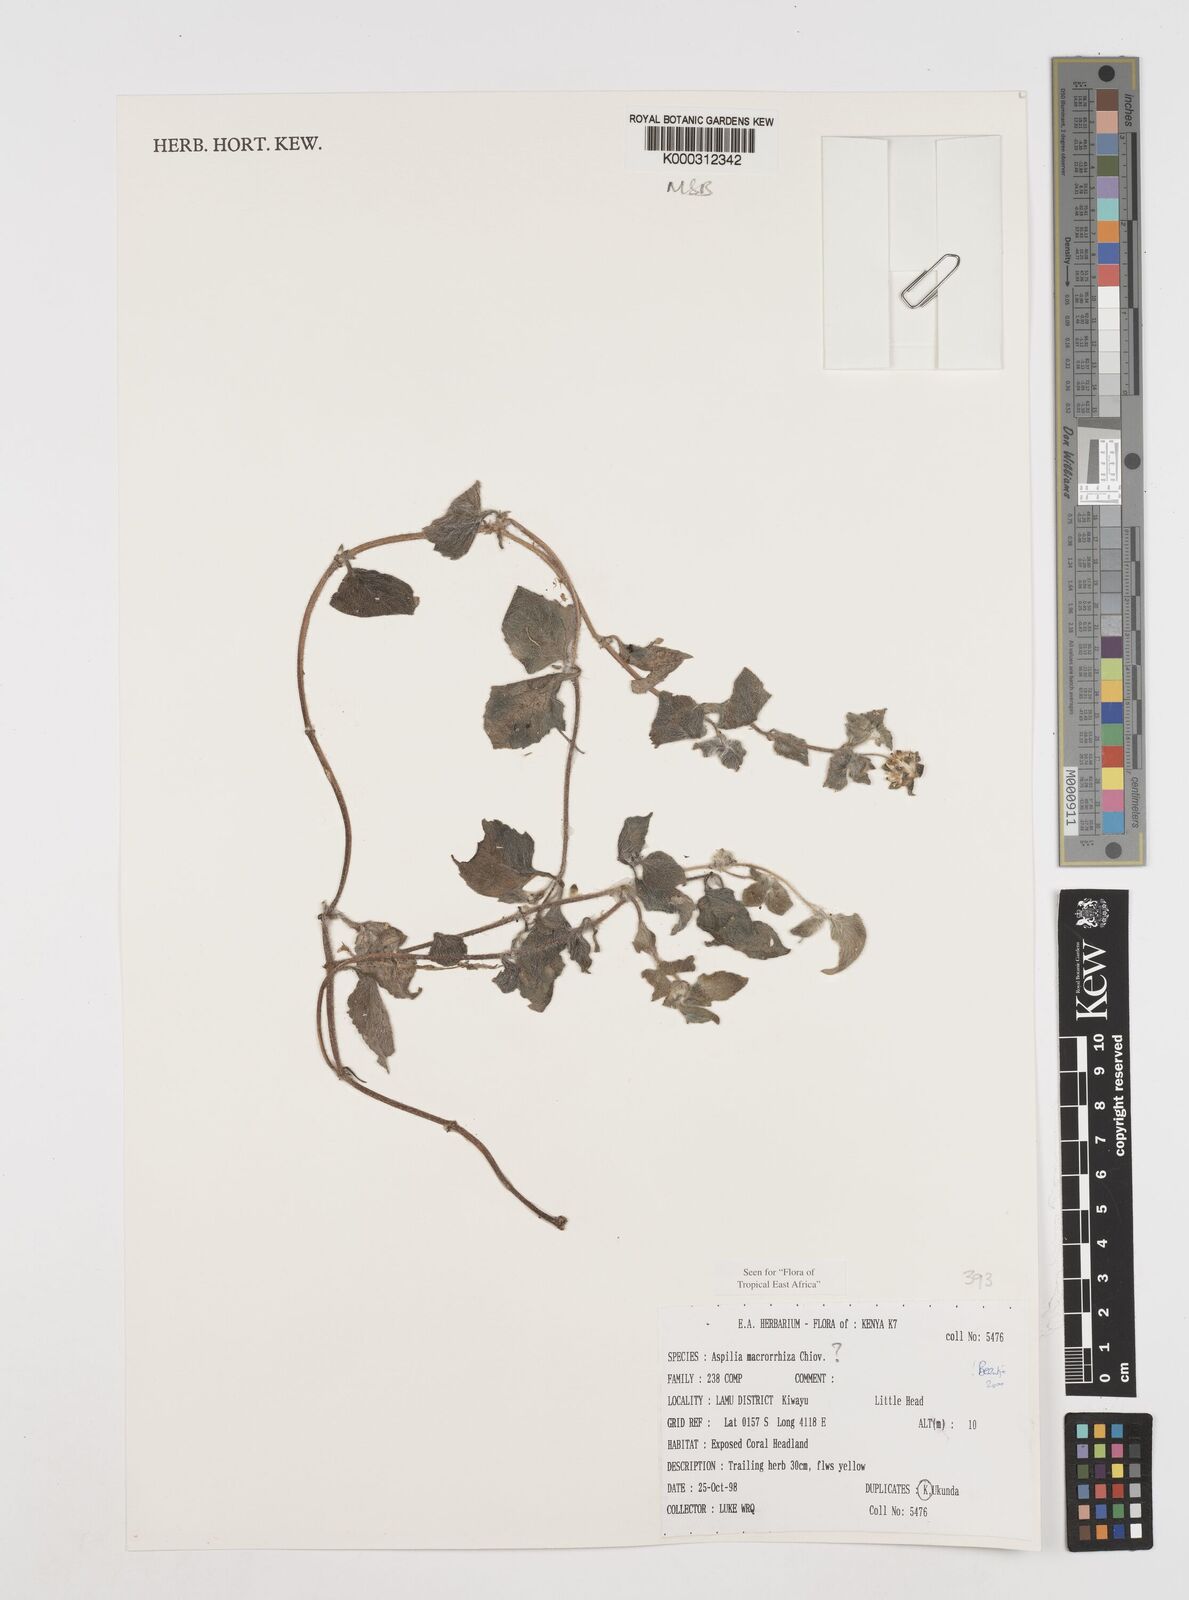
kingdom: Plantae
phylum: Tracheophyta
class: Magnoliopsida
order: Asterales
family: Asteraceae
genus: Aspilia
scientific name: Aspilia macrorrhiza
